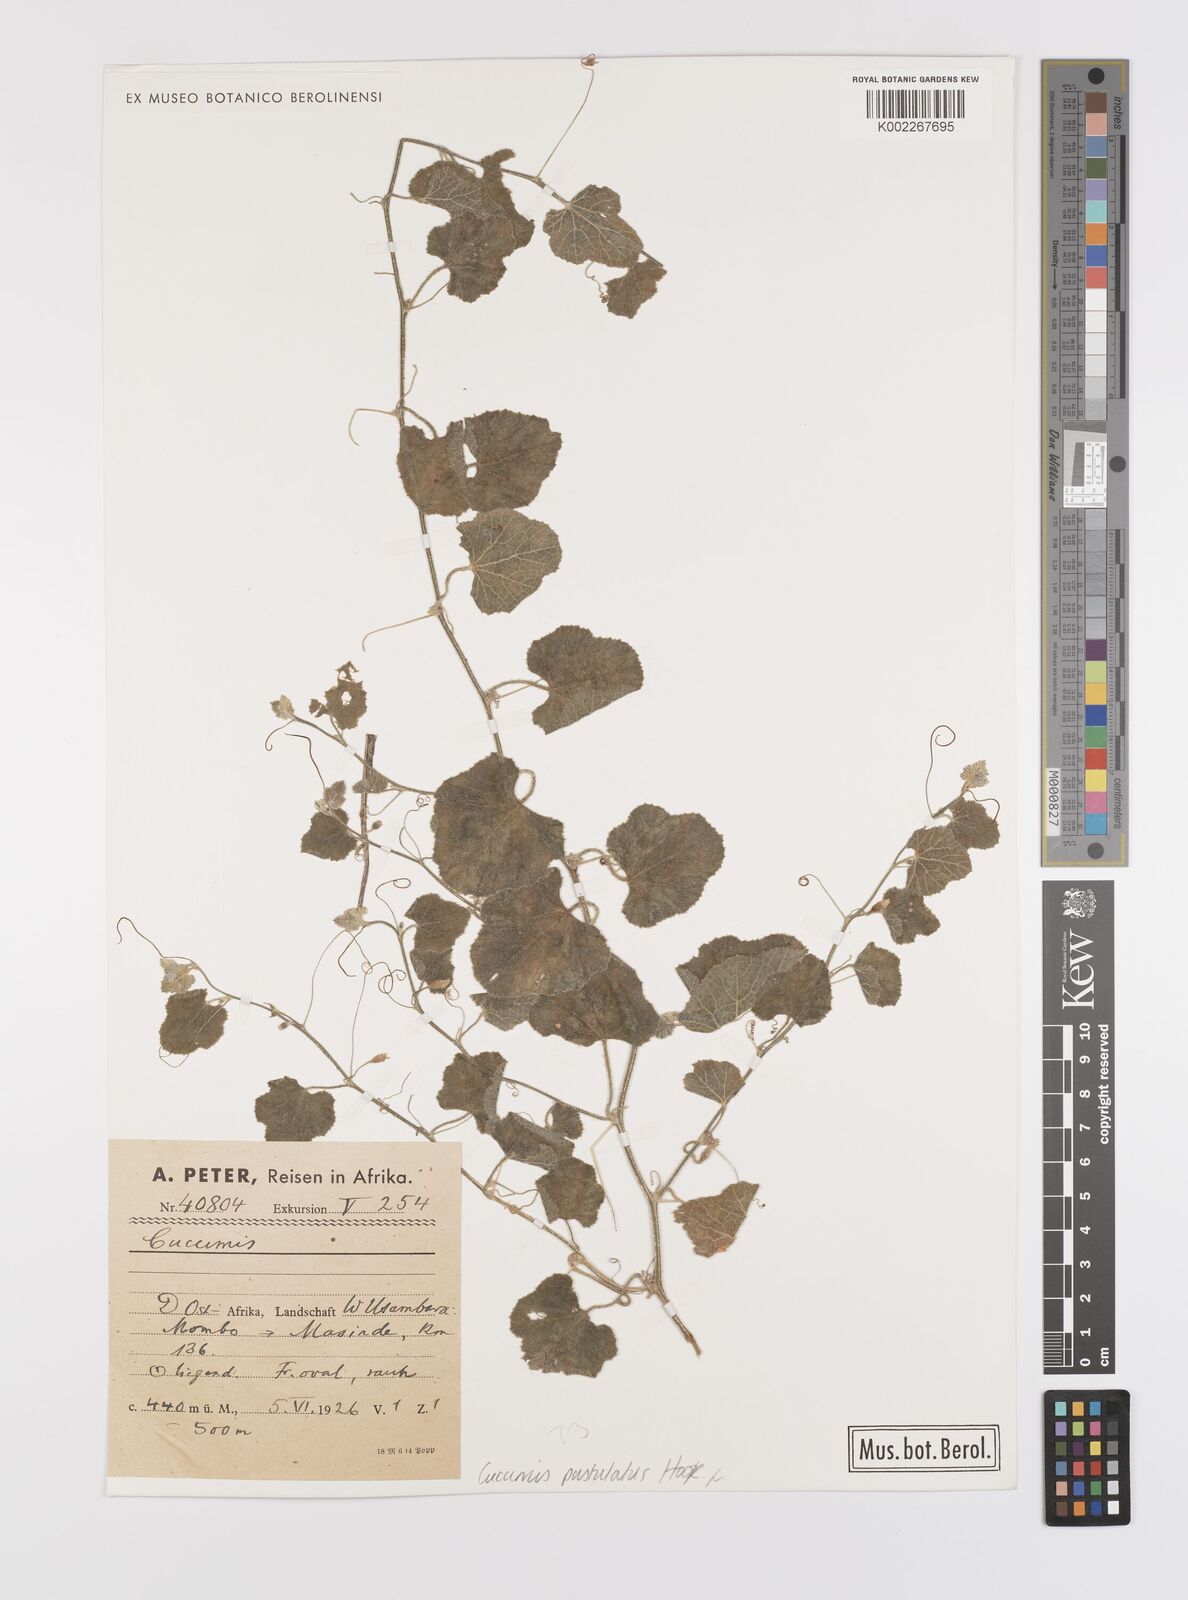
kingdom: Plantae
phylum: Tracheophyta
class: Magnoliopsida
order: Cucurbitales
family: Cucurbitaceae
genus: Cucumis
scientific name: Cucumis
